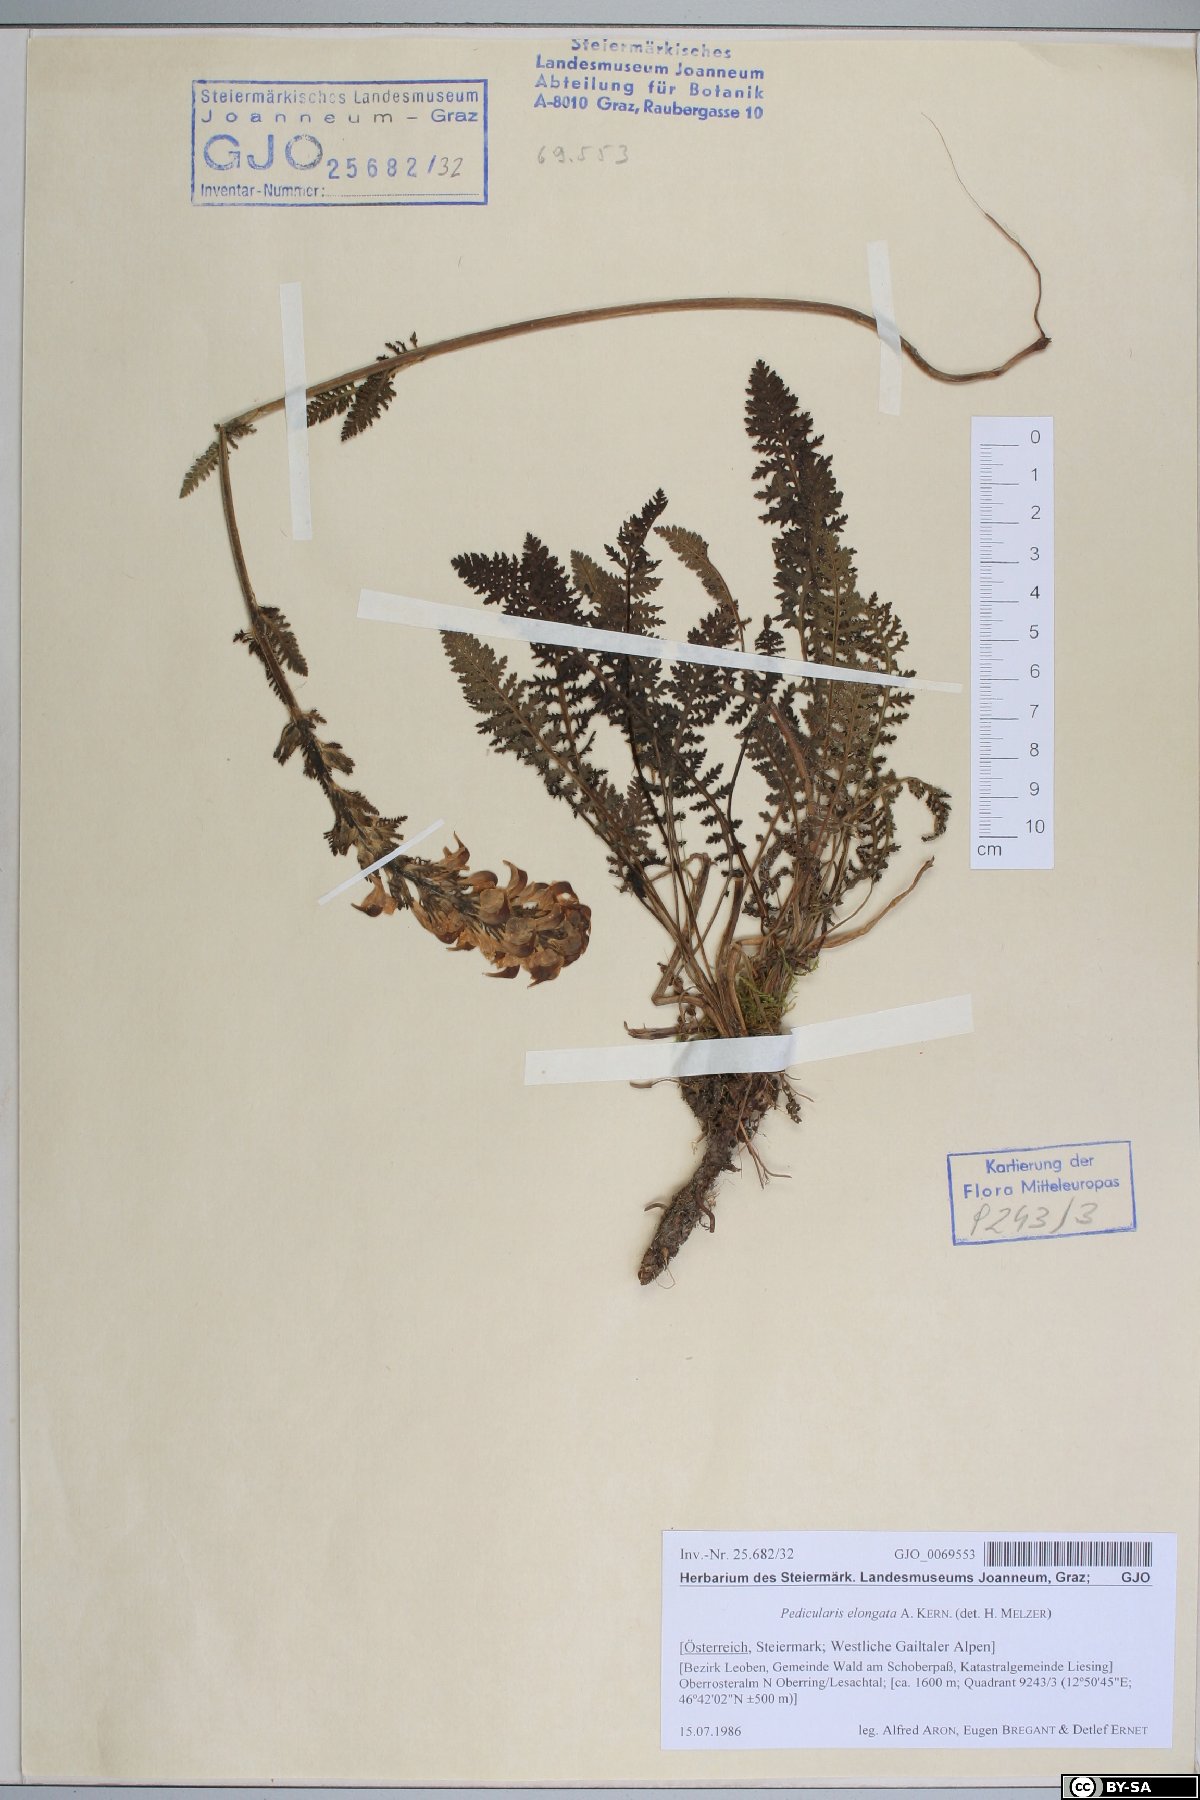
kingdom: Plantae
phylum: Tracheophyta
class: Magnoliopsida
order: Lamiales
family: Orobanchaceae
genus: Pedicularis
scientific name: Pedicularis elongata
